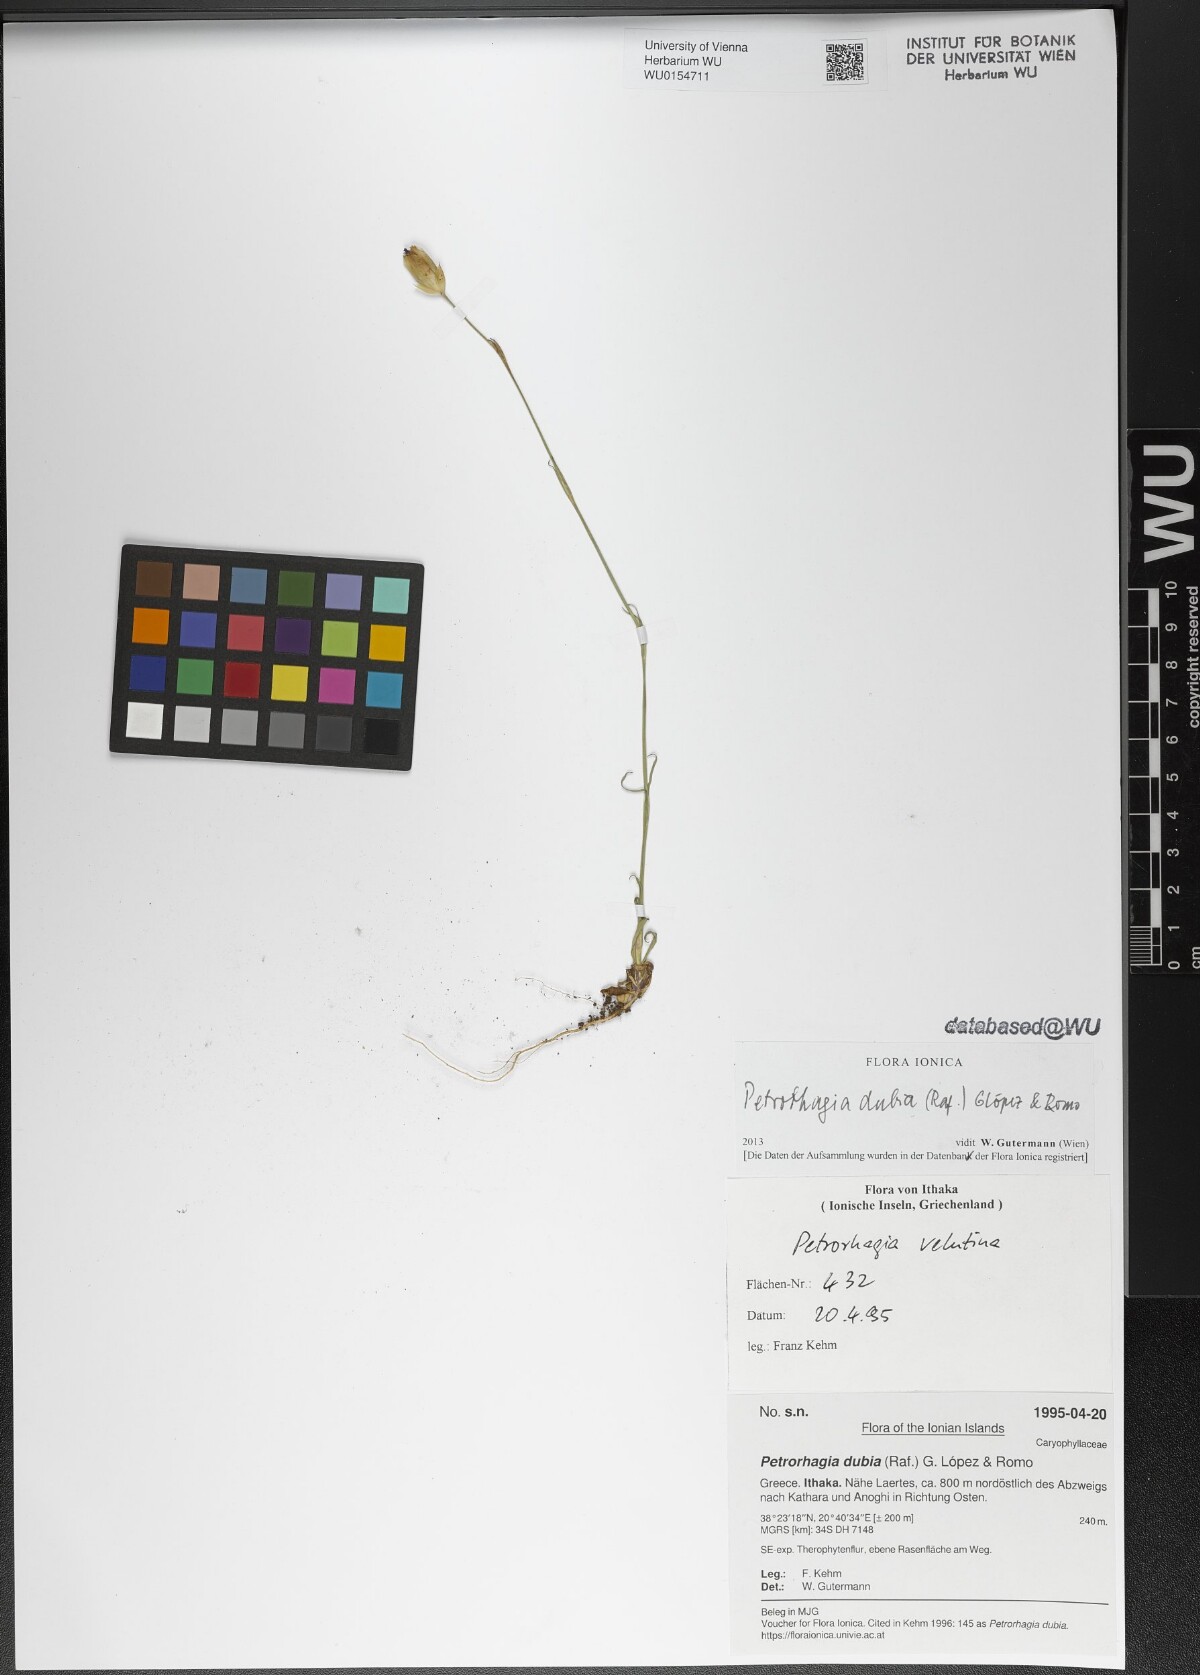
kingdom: Plantae
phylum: Tracheophyta
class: Magnoliopsida
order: Caryophyllales
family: Caryophyllaceae
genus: Petrorhagia
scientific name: Petrorhagia dubia
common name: Hairypink
